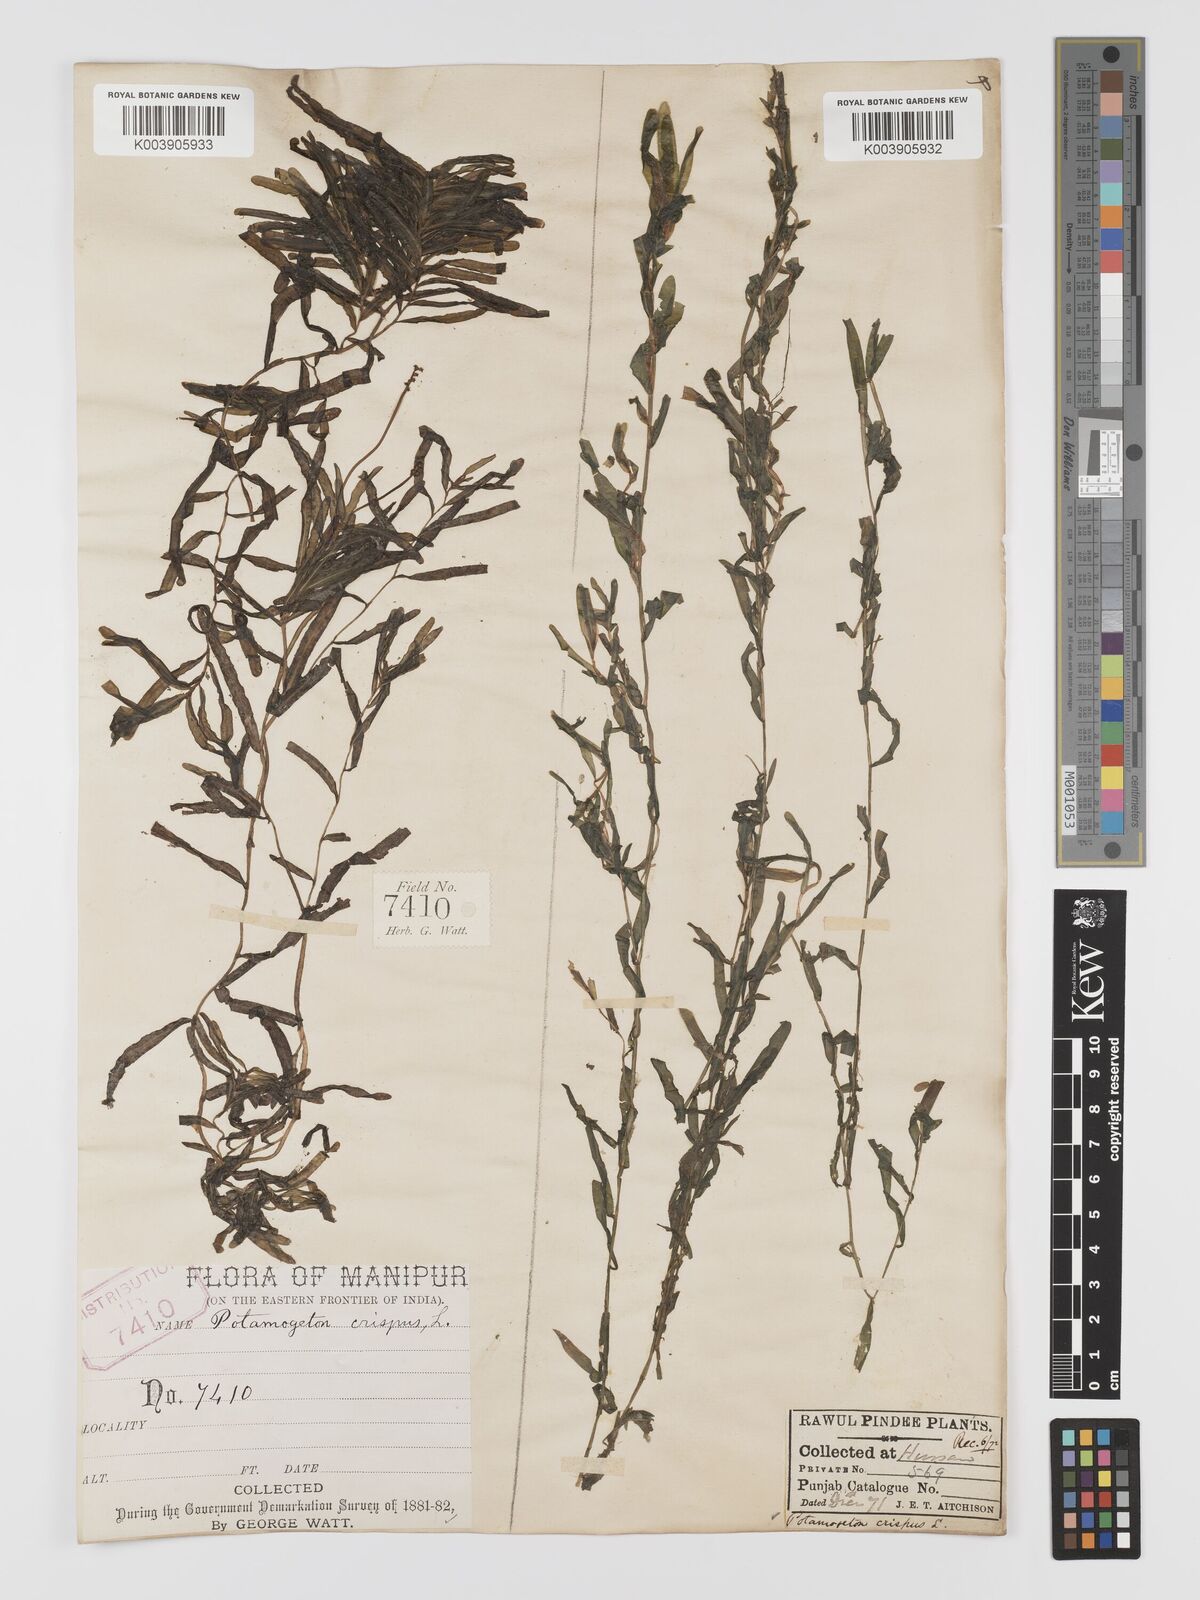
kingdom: Plantae
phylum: Tracheophyta
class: Liliopsida
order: Alismatales
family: Potamogetonaceae
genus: Potamogeton
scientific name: Potamogeton crispus
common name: Curled pondweed
